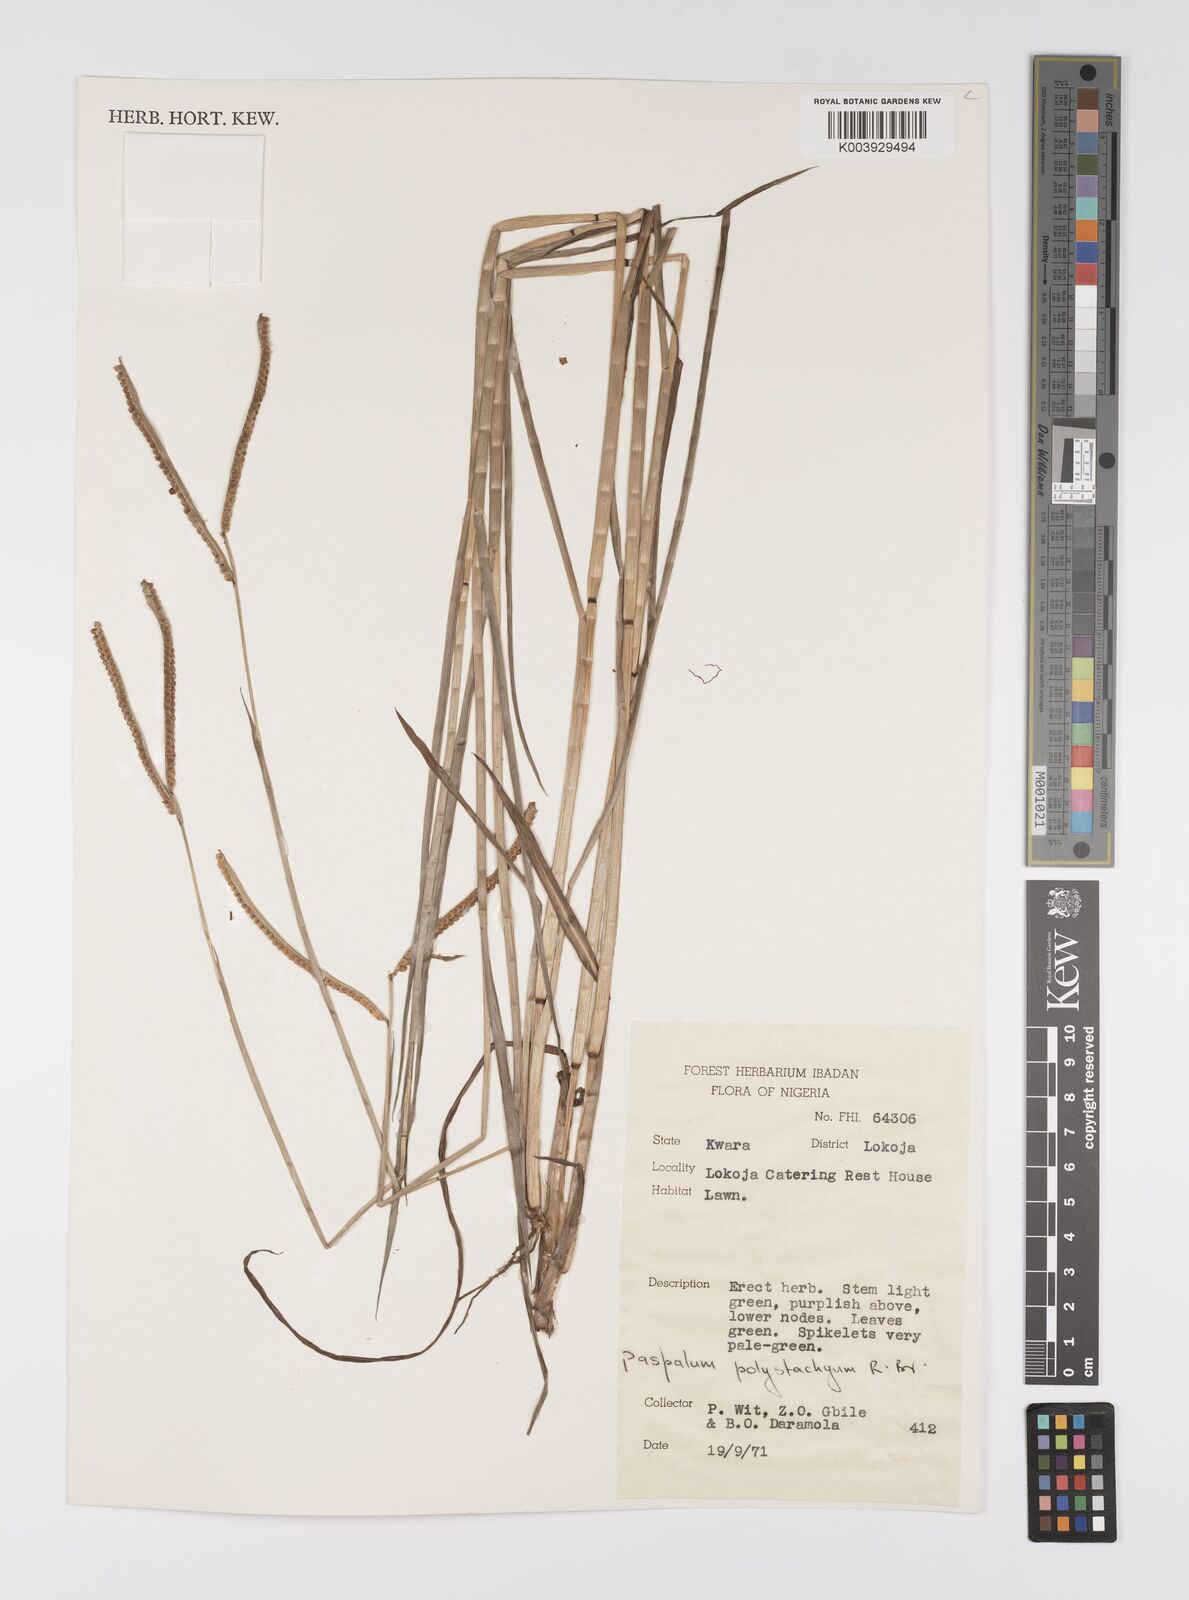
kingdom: Plantae
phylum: Tracheophyta
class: Liliopsida
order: Poales
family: Poaceae
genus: Paspalum
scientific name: Paspalum scrobiculatum
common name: Kodo millet
